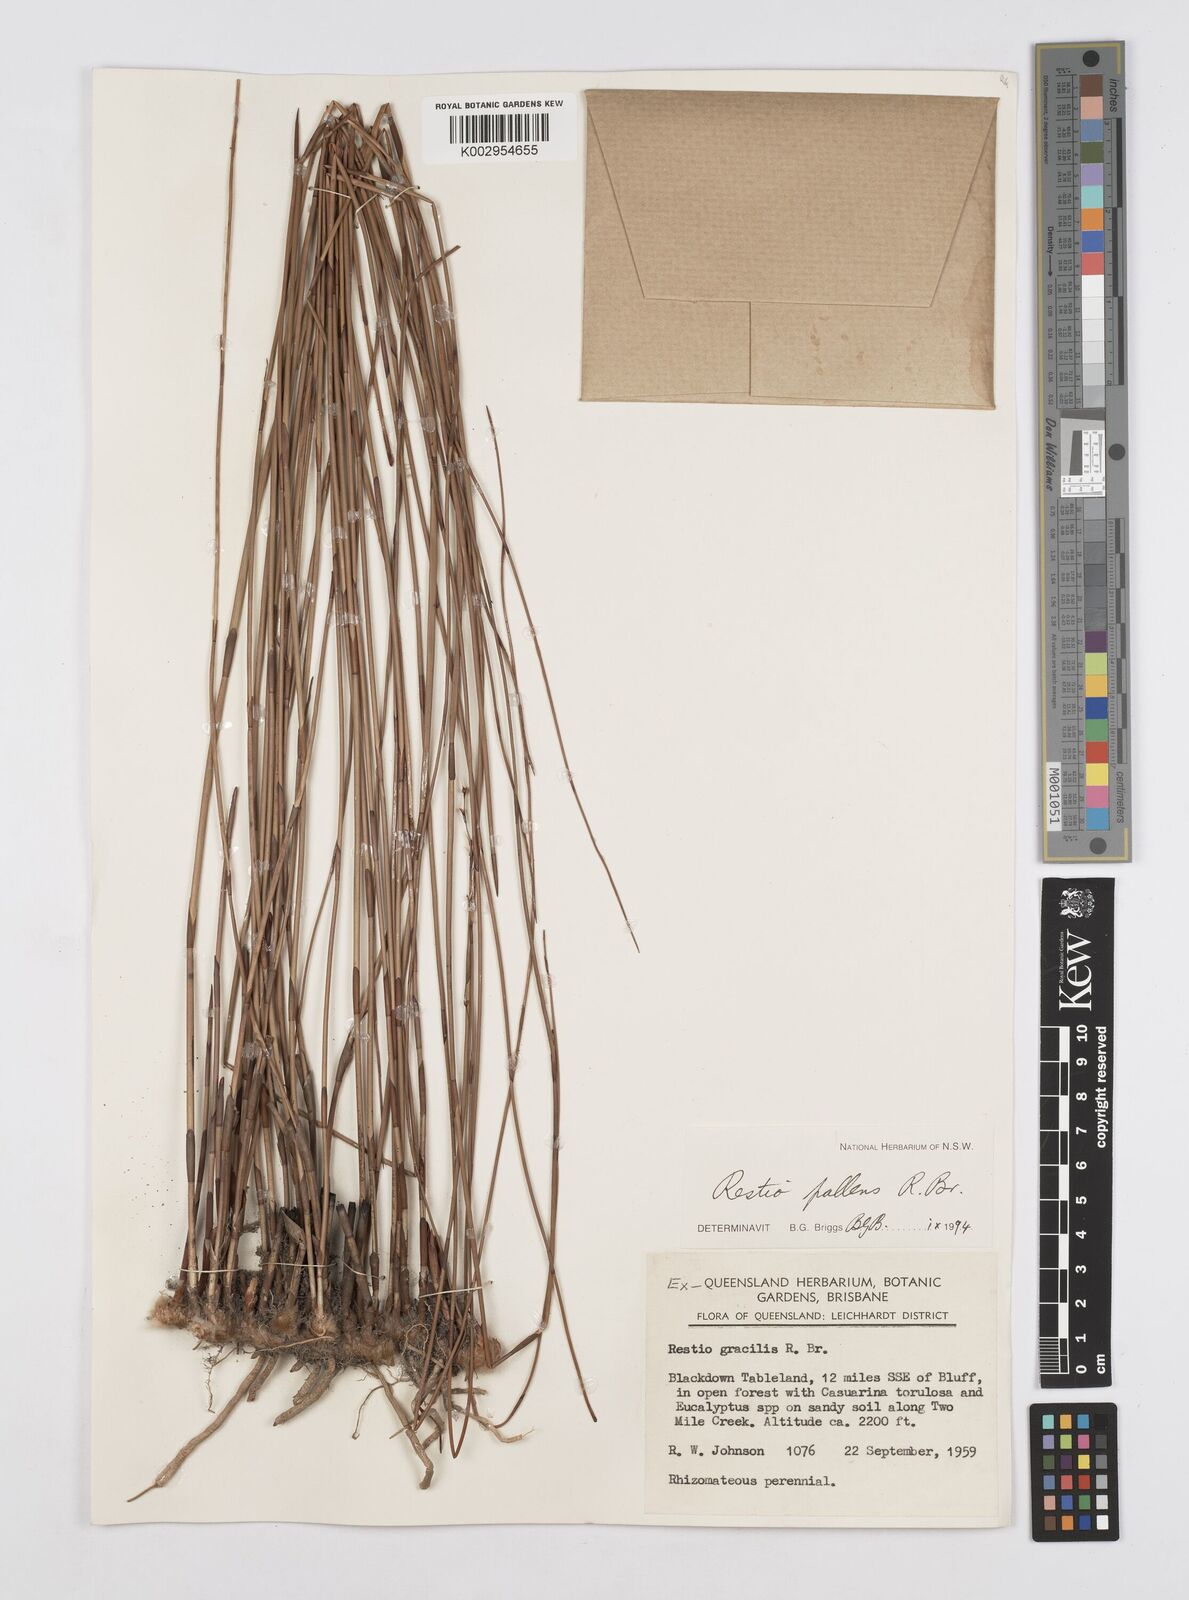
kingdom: Plantae
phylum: Tracheophyta
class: Liliopsida
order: Poales
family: Restionaceae
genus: Baloskion
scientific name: Baloskion pallens
